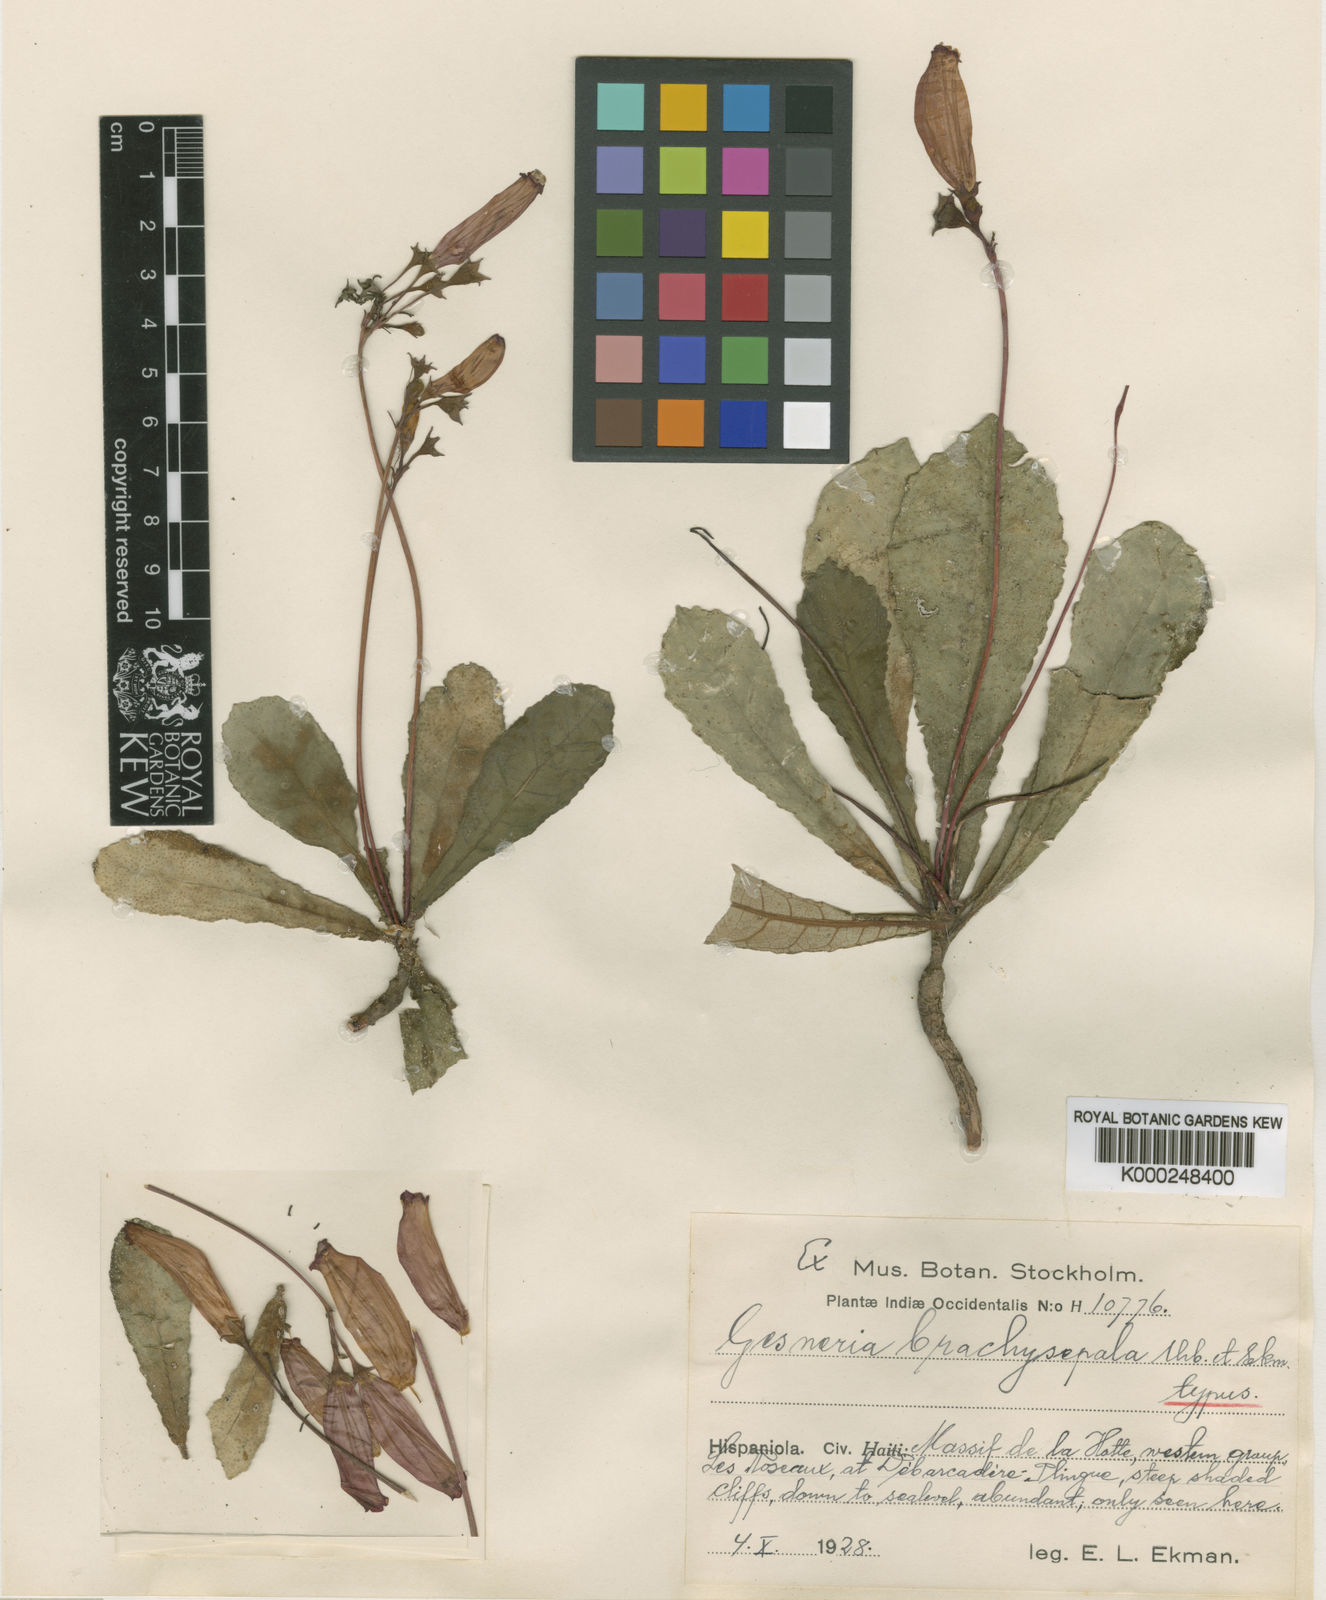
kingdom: Plantae
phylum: Tracheophyta
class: Magnoliopsida
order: Lamiales
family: Gesneriaceae
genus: Gesneria
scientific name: Gesneria brachysepala
